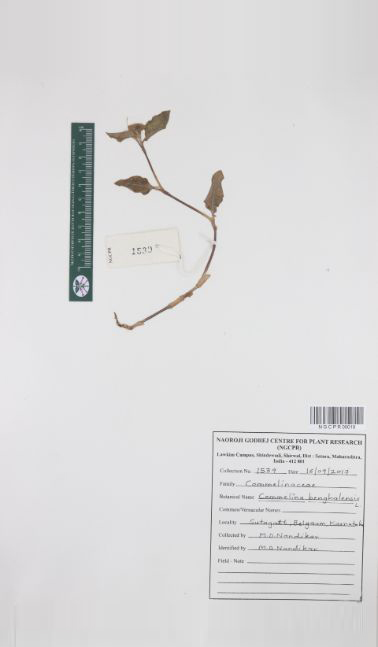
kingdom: Plantae
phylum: Tracheophyta
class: Liliopsida
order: Commelinales
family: Commelinaceae
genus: Commelina
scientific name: Commelina benghalensis
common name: Jio
